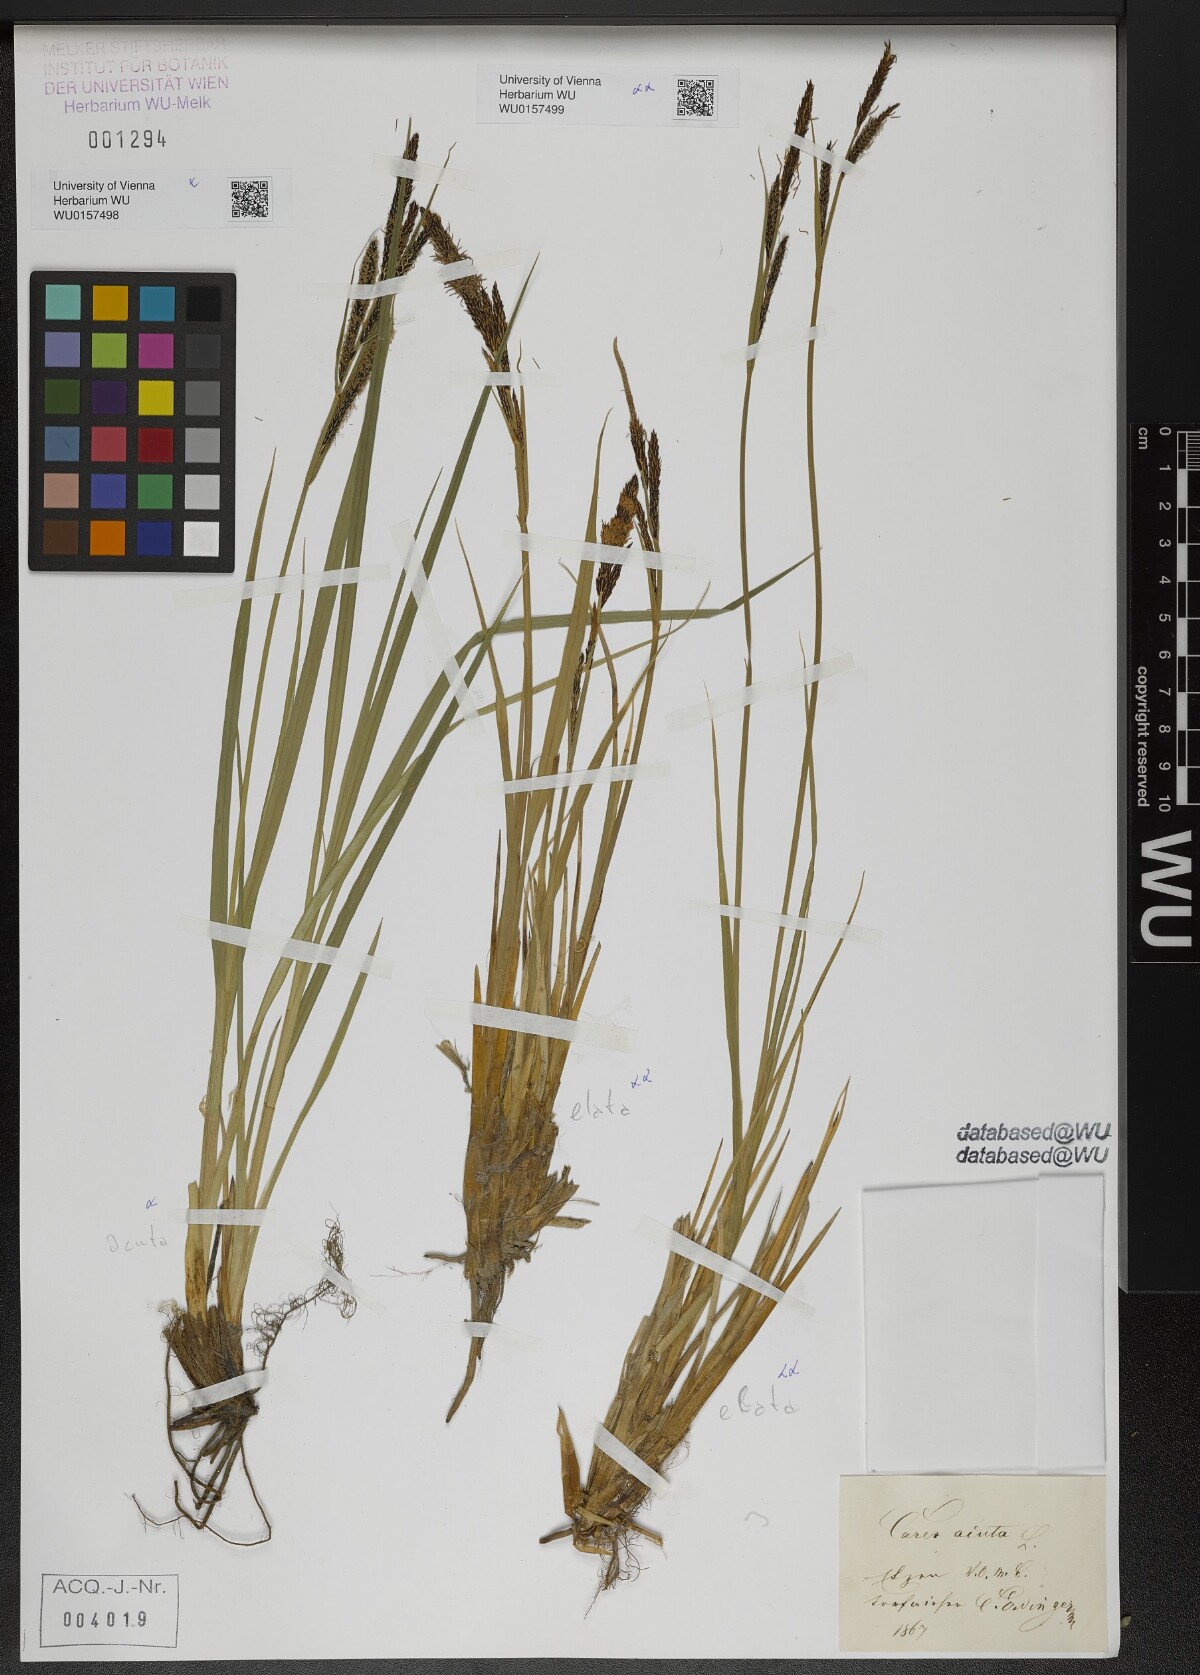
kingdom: Plantae
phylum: Tracheophyta
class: Liliopsida
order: Poales
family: Cyperaceae
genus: Carex
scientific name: Carex elata
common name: Tufted sedge
